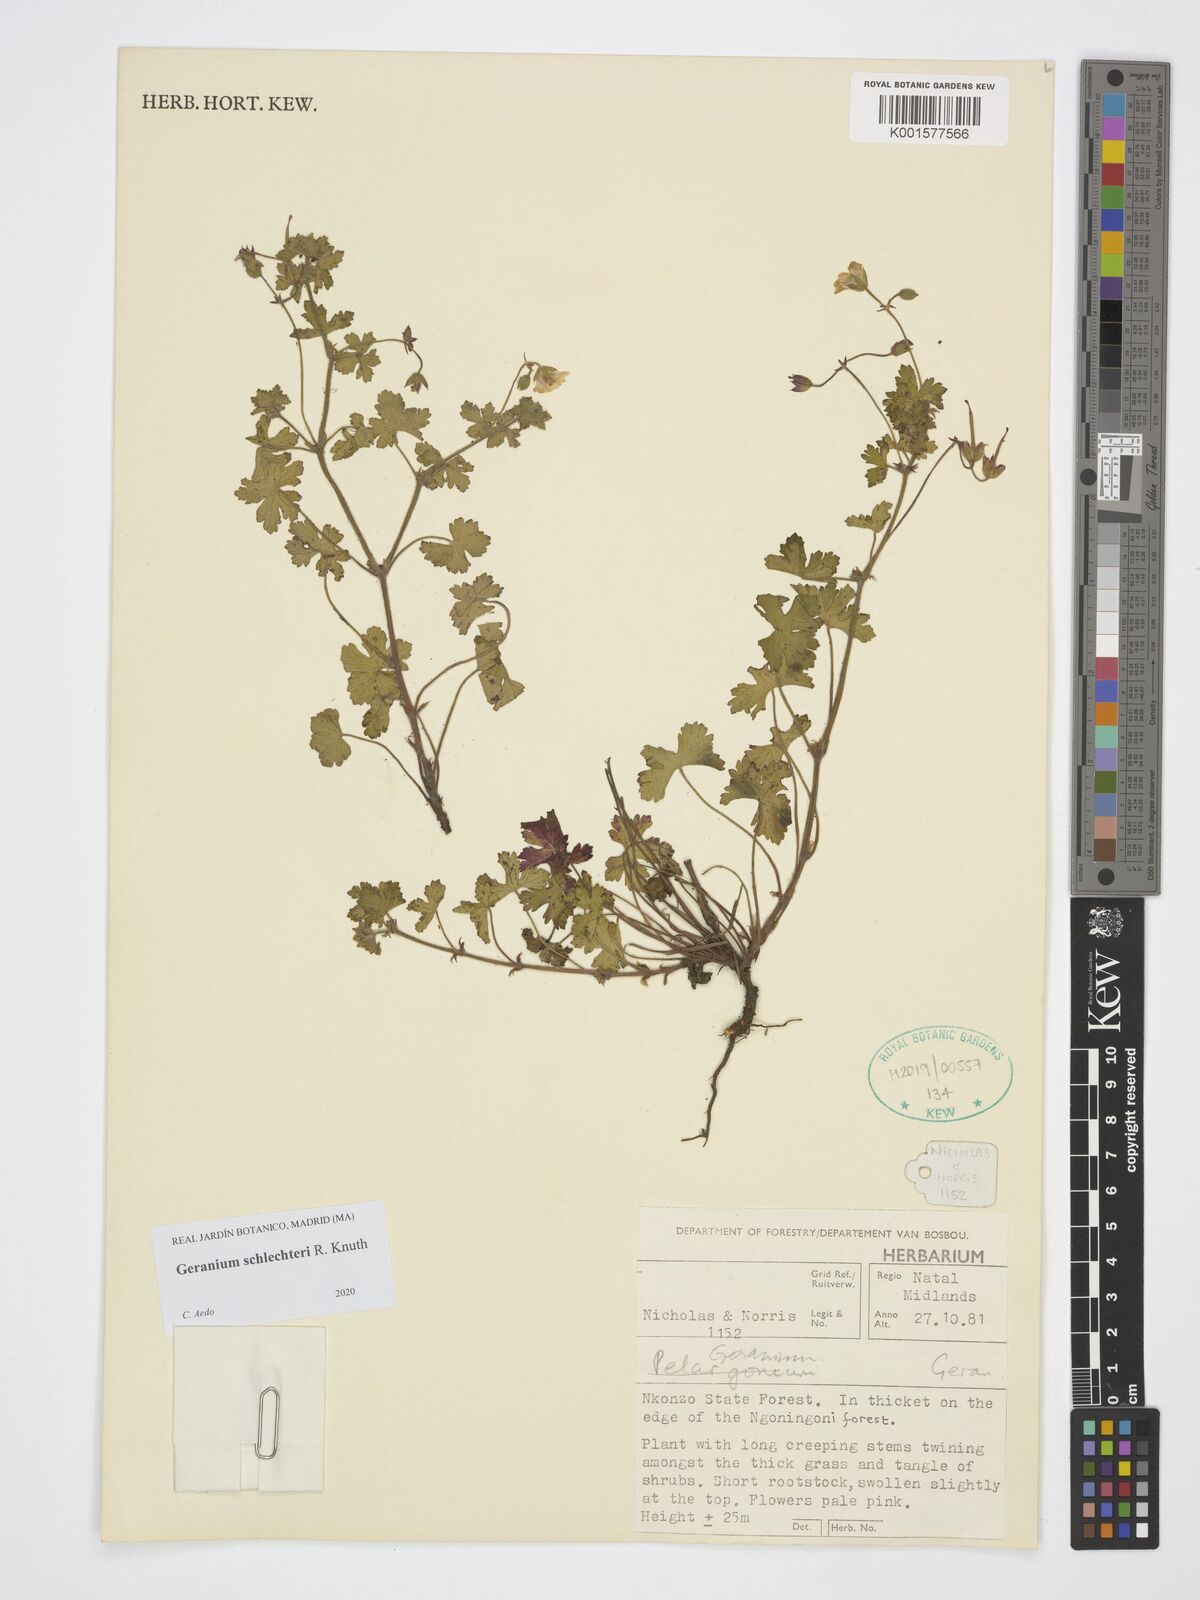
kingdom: Plantae
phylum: Tracheophyta
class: Magnoliopsida
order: Geraniales
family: Geraniaceae
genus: Geranium
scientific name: Geranium schlechteri
